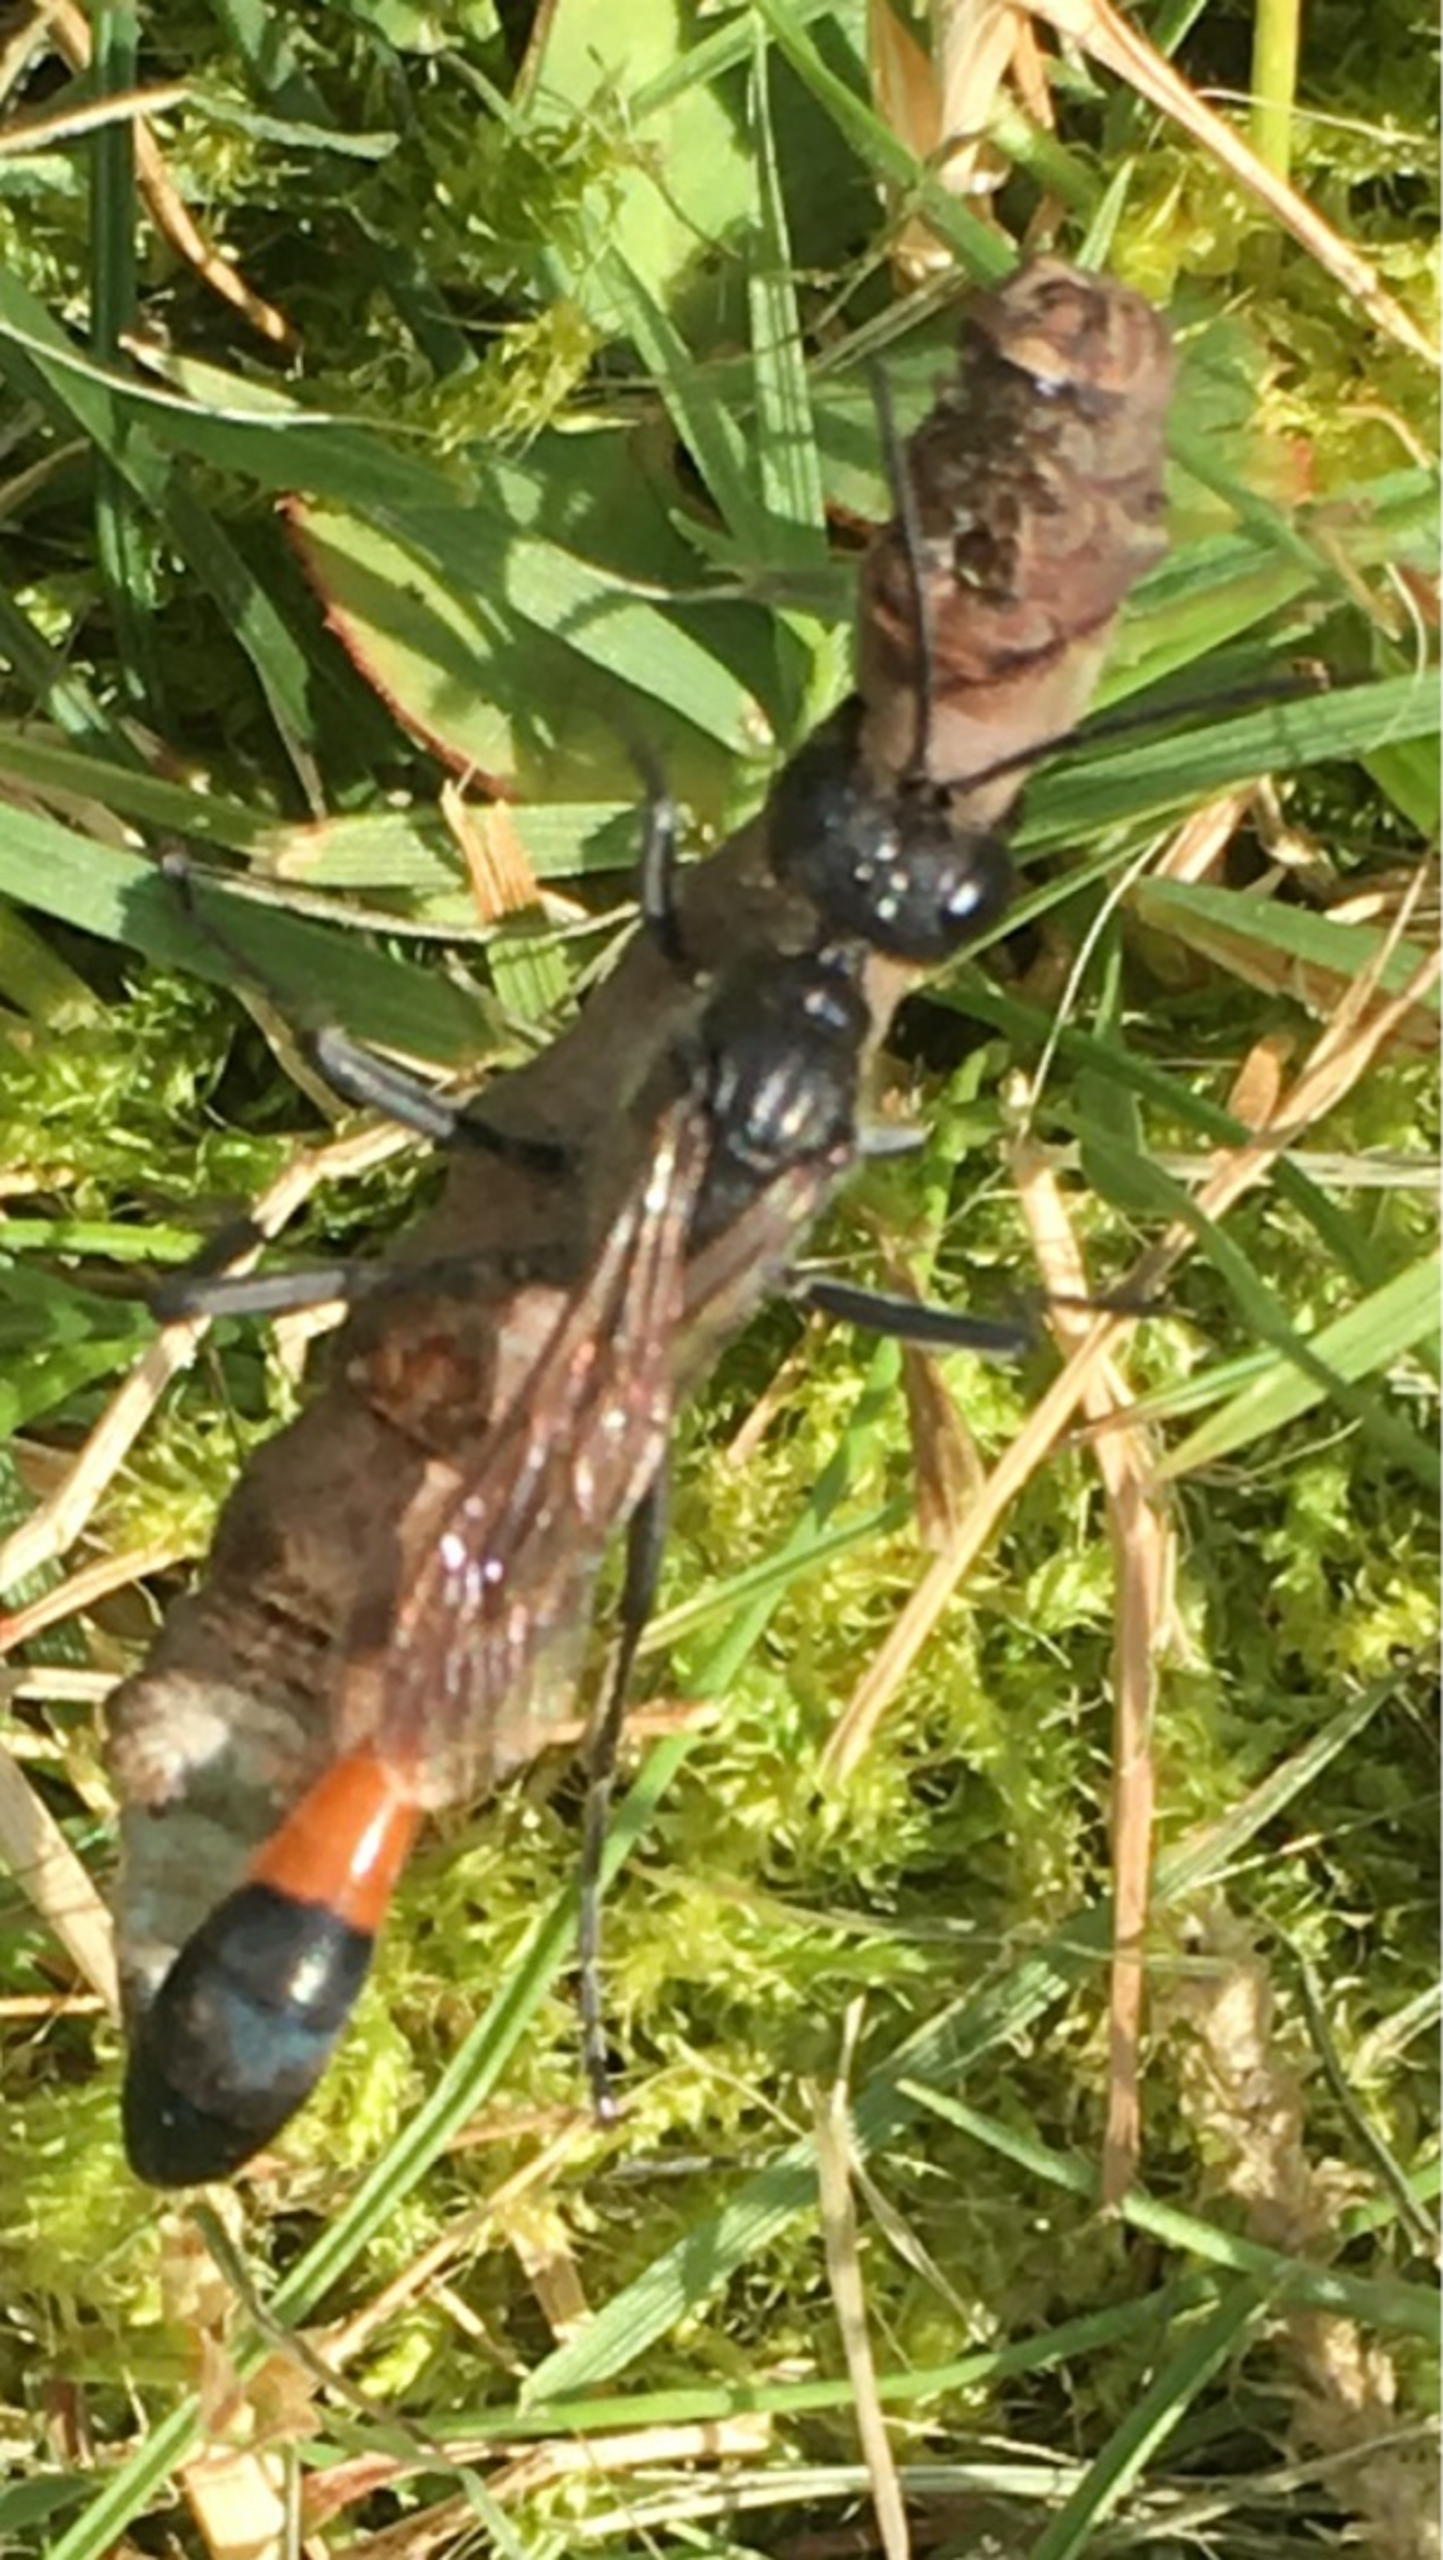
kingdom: Animalia
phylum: Arthropoda
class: Insecta
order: Hymenoptera
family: Sphecidae
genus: Ammophila
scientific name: Ammophila
